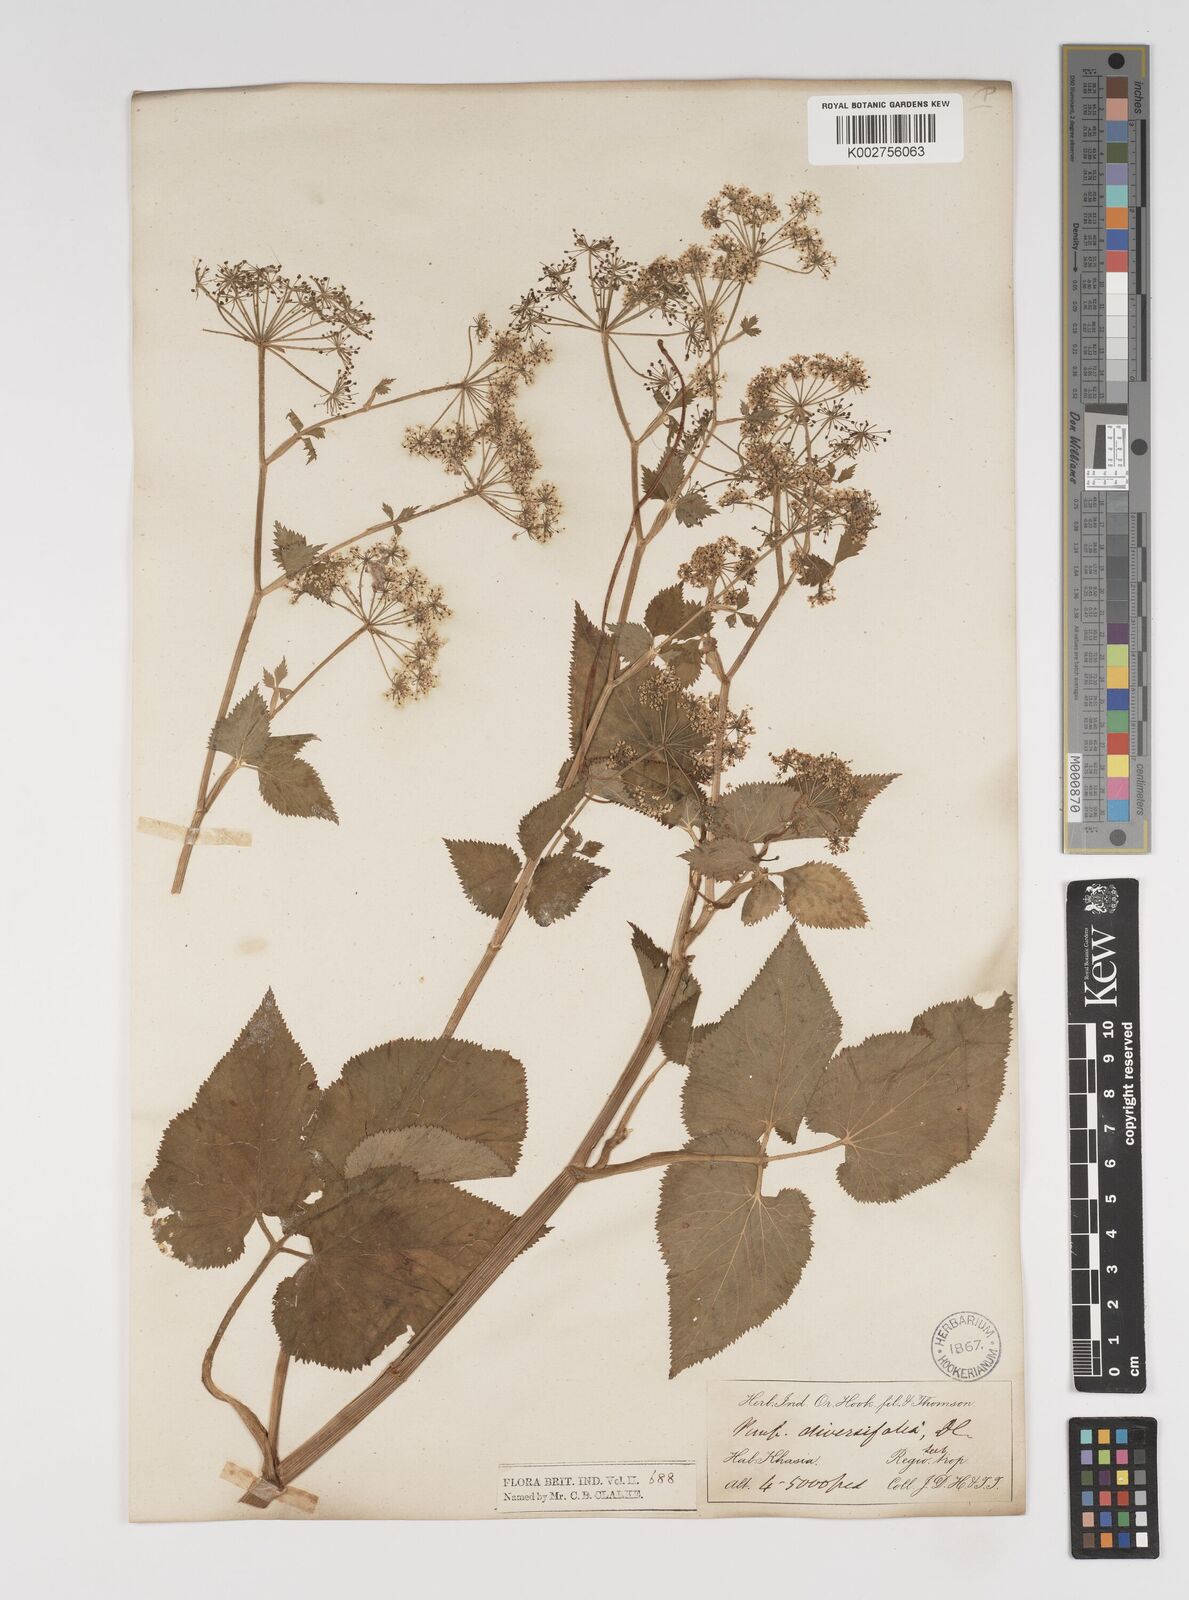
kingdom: Plantae
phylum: Tracheophyta
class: Magnoliopsida
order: Apiales
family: Apiaceae
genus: Pimpinella
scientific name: Pimpinella diversifolia
